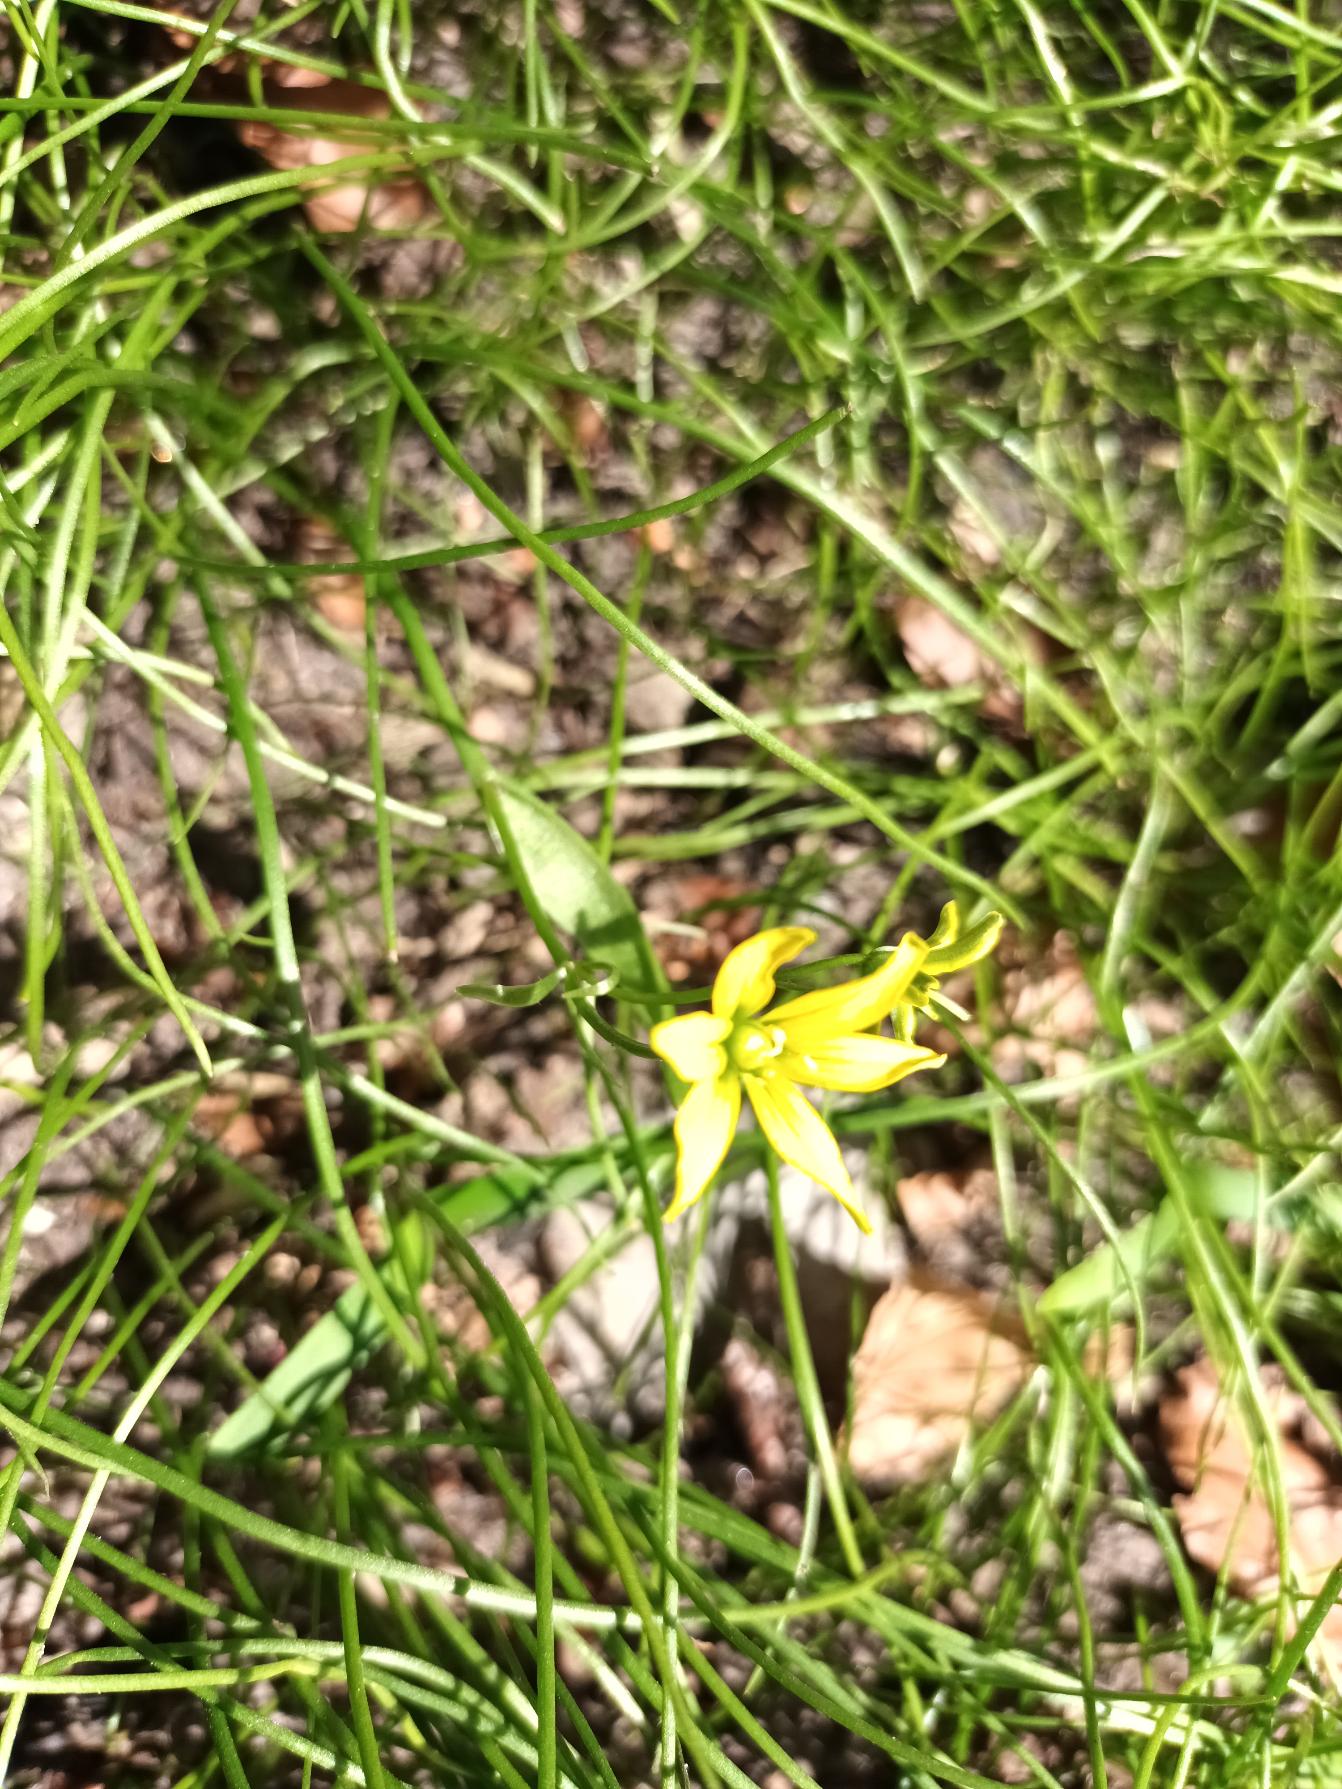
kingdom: Plantae
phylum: Tracheophyta
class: Liliopsida
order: Liliales
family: Liliaceae
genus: Gagea
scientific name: Gagea spathacea
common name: Hylster-guldstjerne
